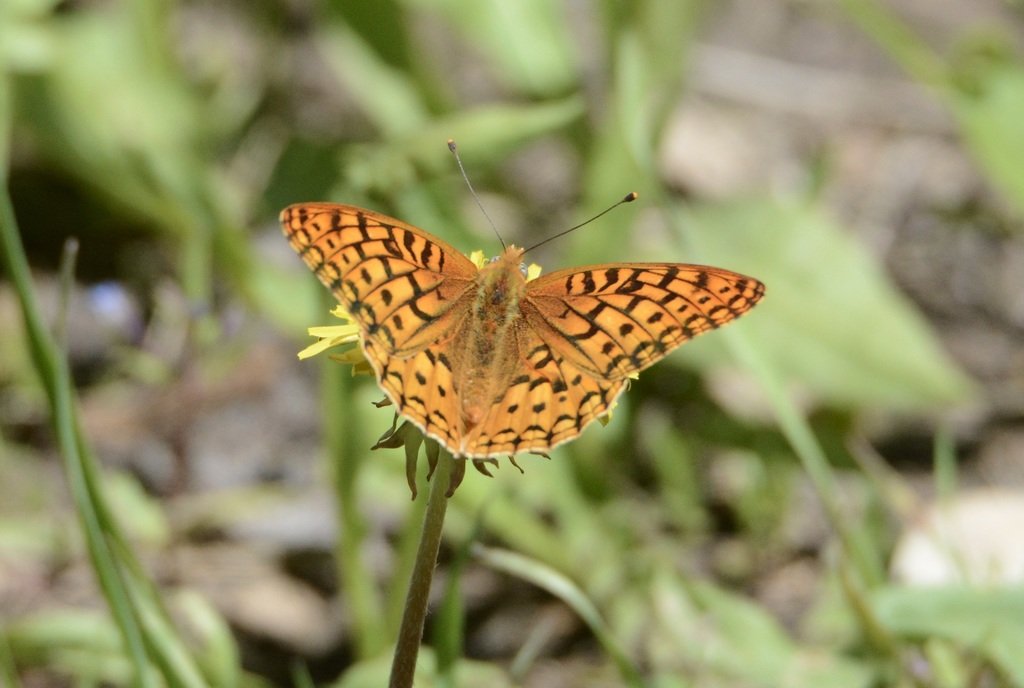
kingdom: Animalia
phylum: Arthropoda
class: Insecta
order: Lepidoptera
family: Nymphalidae
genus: Speyeria
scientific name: Speyeria zerene
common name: Zerene Fritillary
